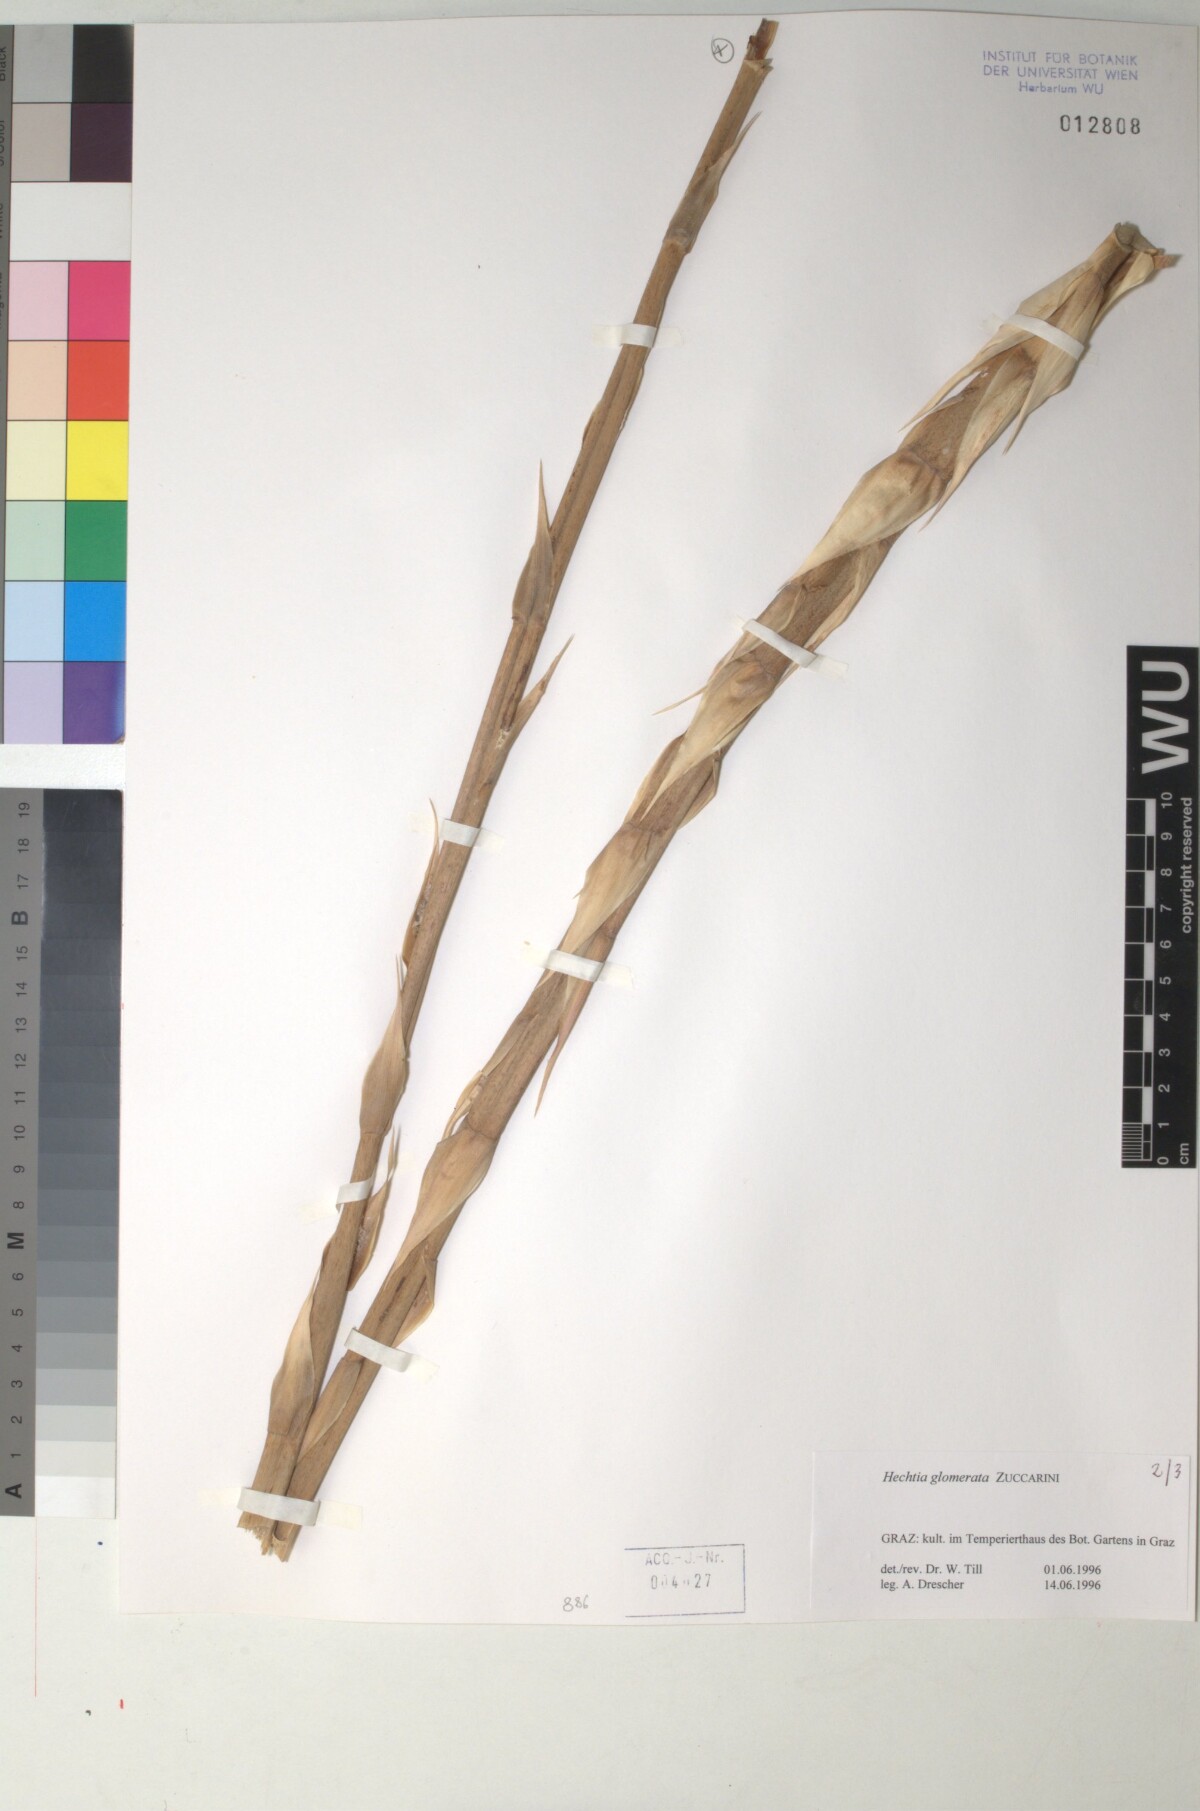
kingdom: Plantae
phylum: Tracheophyta
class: Liliopsida
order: Poales
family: Bromeliaceae
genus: Hechtia
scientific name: Hechtia glomerata
